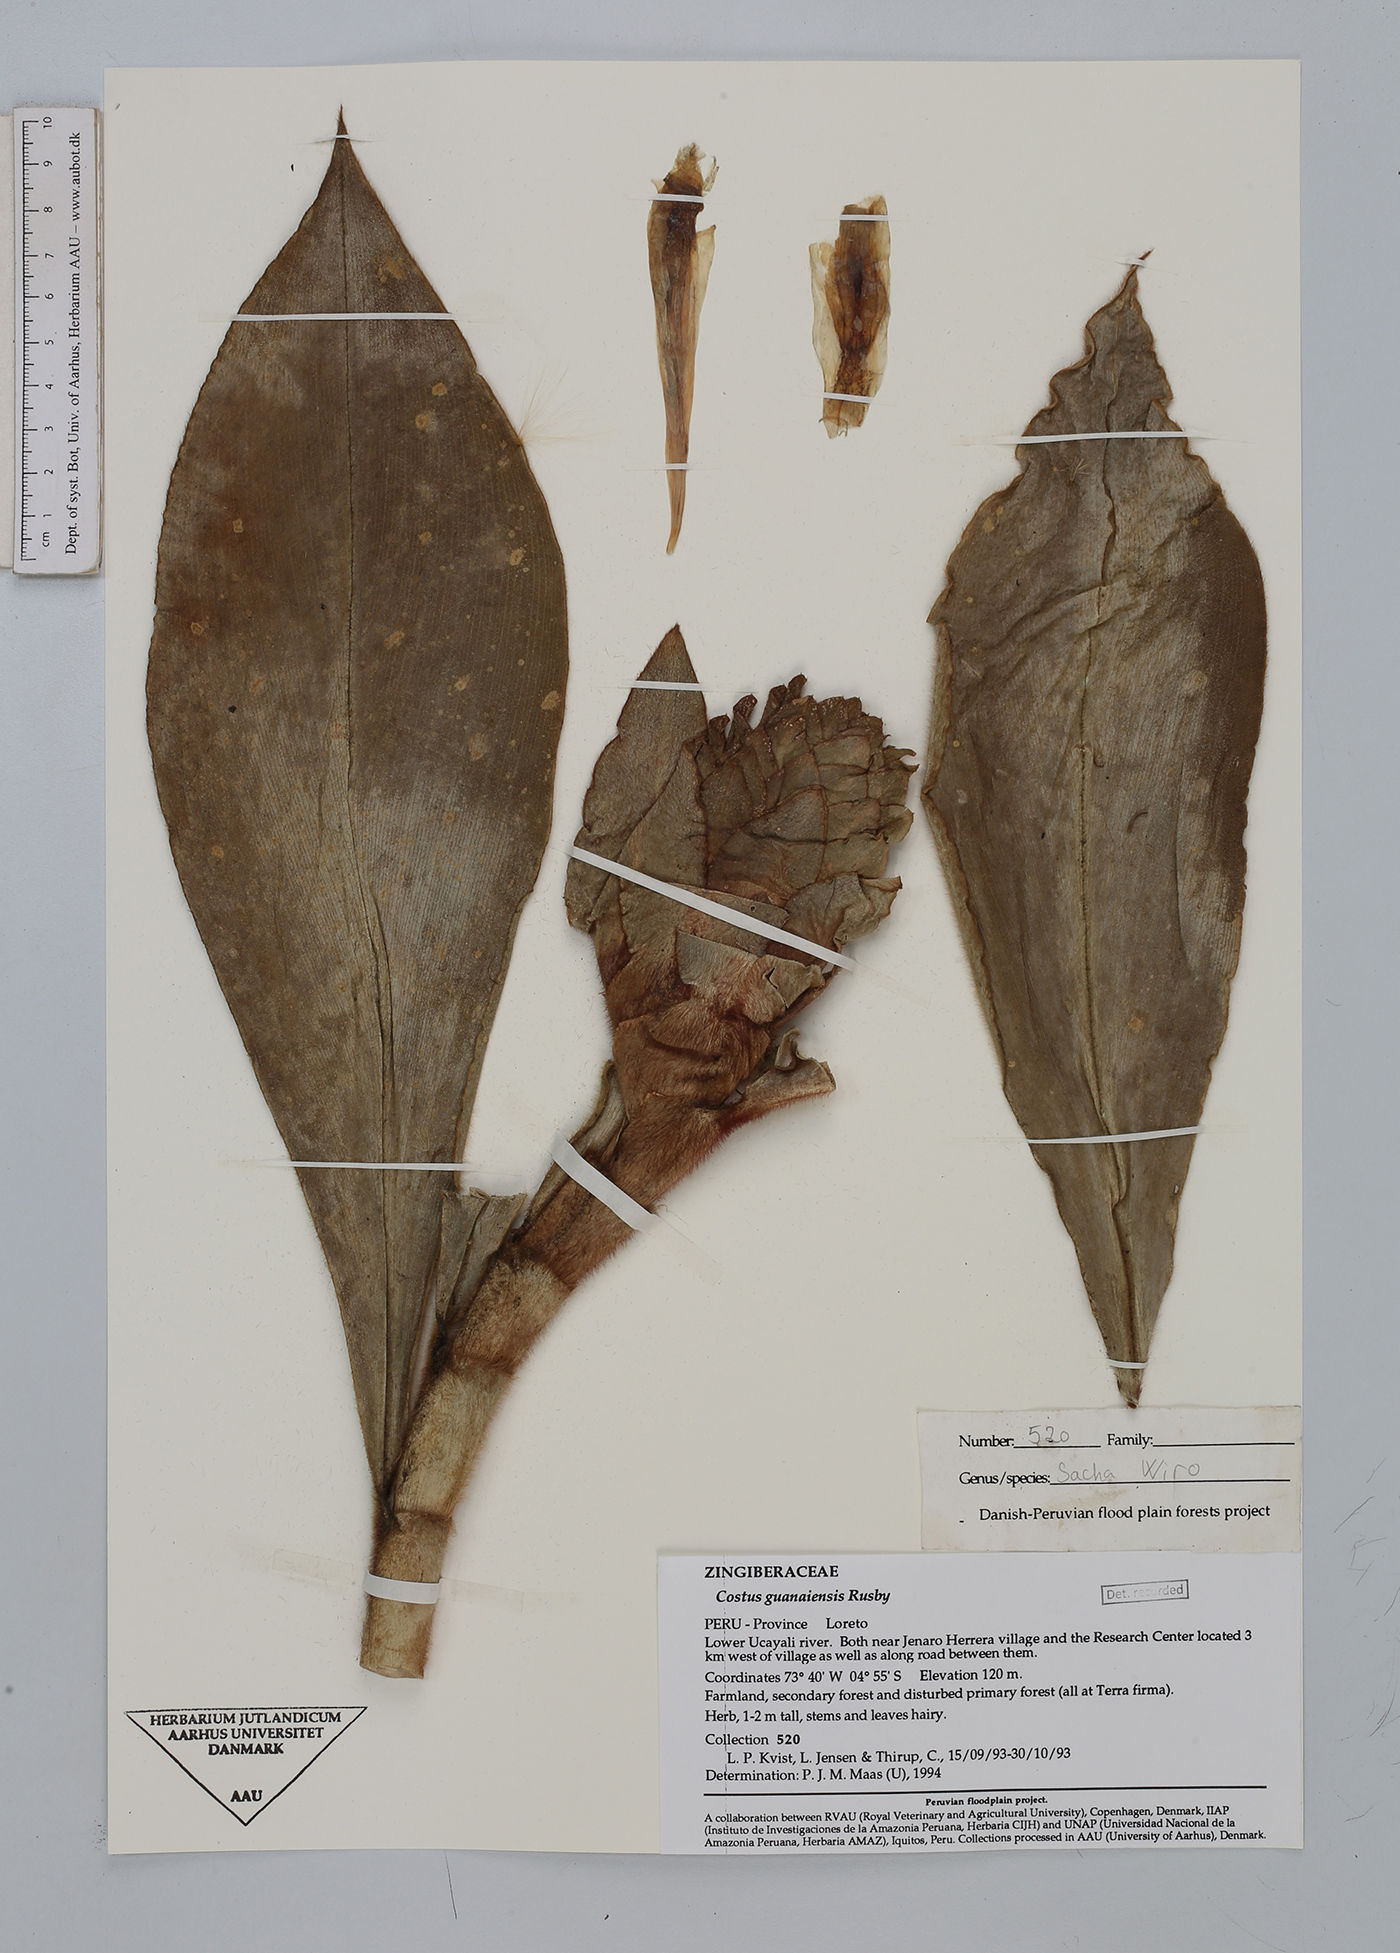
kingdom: Plantae
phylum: Tracheophyta
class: Liliopsida
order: Zingiberales
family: Costaceae
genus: Costus
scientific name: Costus guanaiensis
